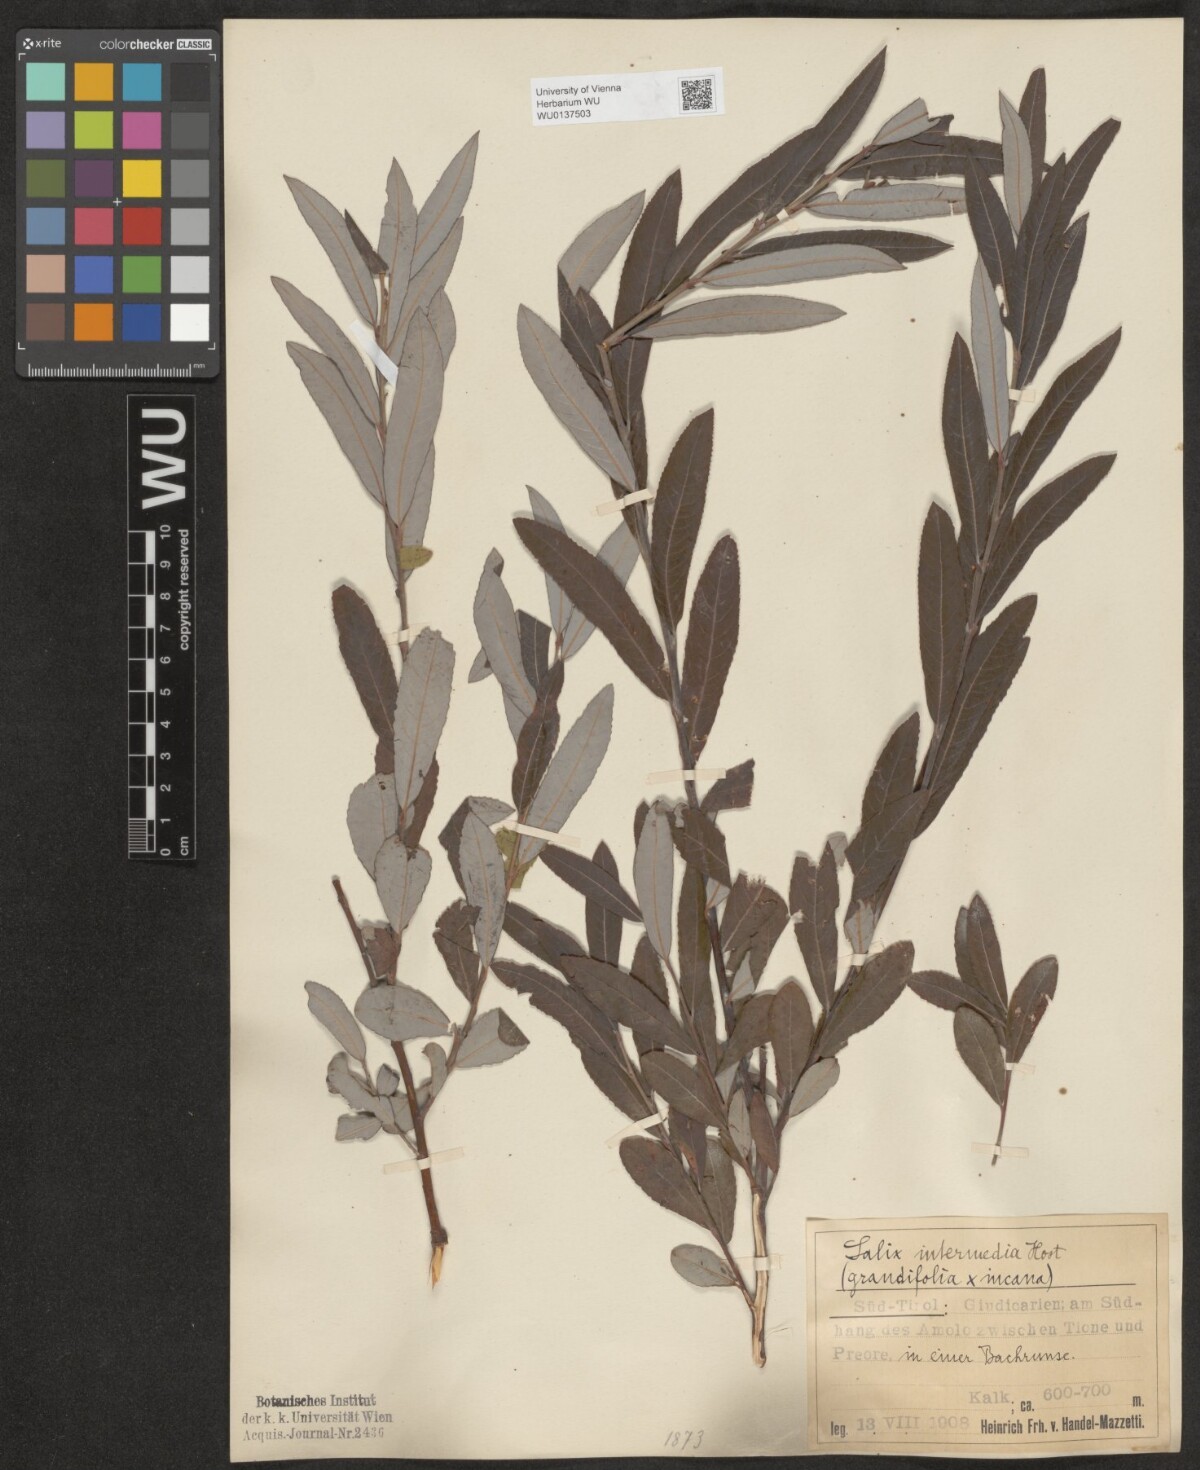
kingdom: Plantae
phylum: Tracheophyta
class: Magnoliopsida
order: Malpighiales
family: Salicaceae
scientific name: Salicaceae
